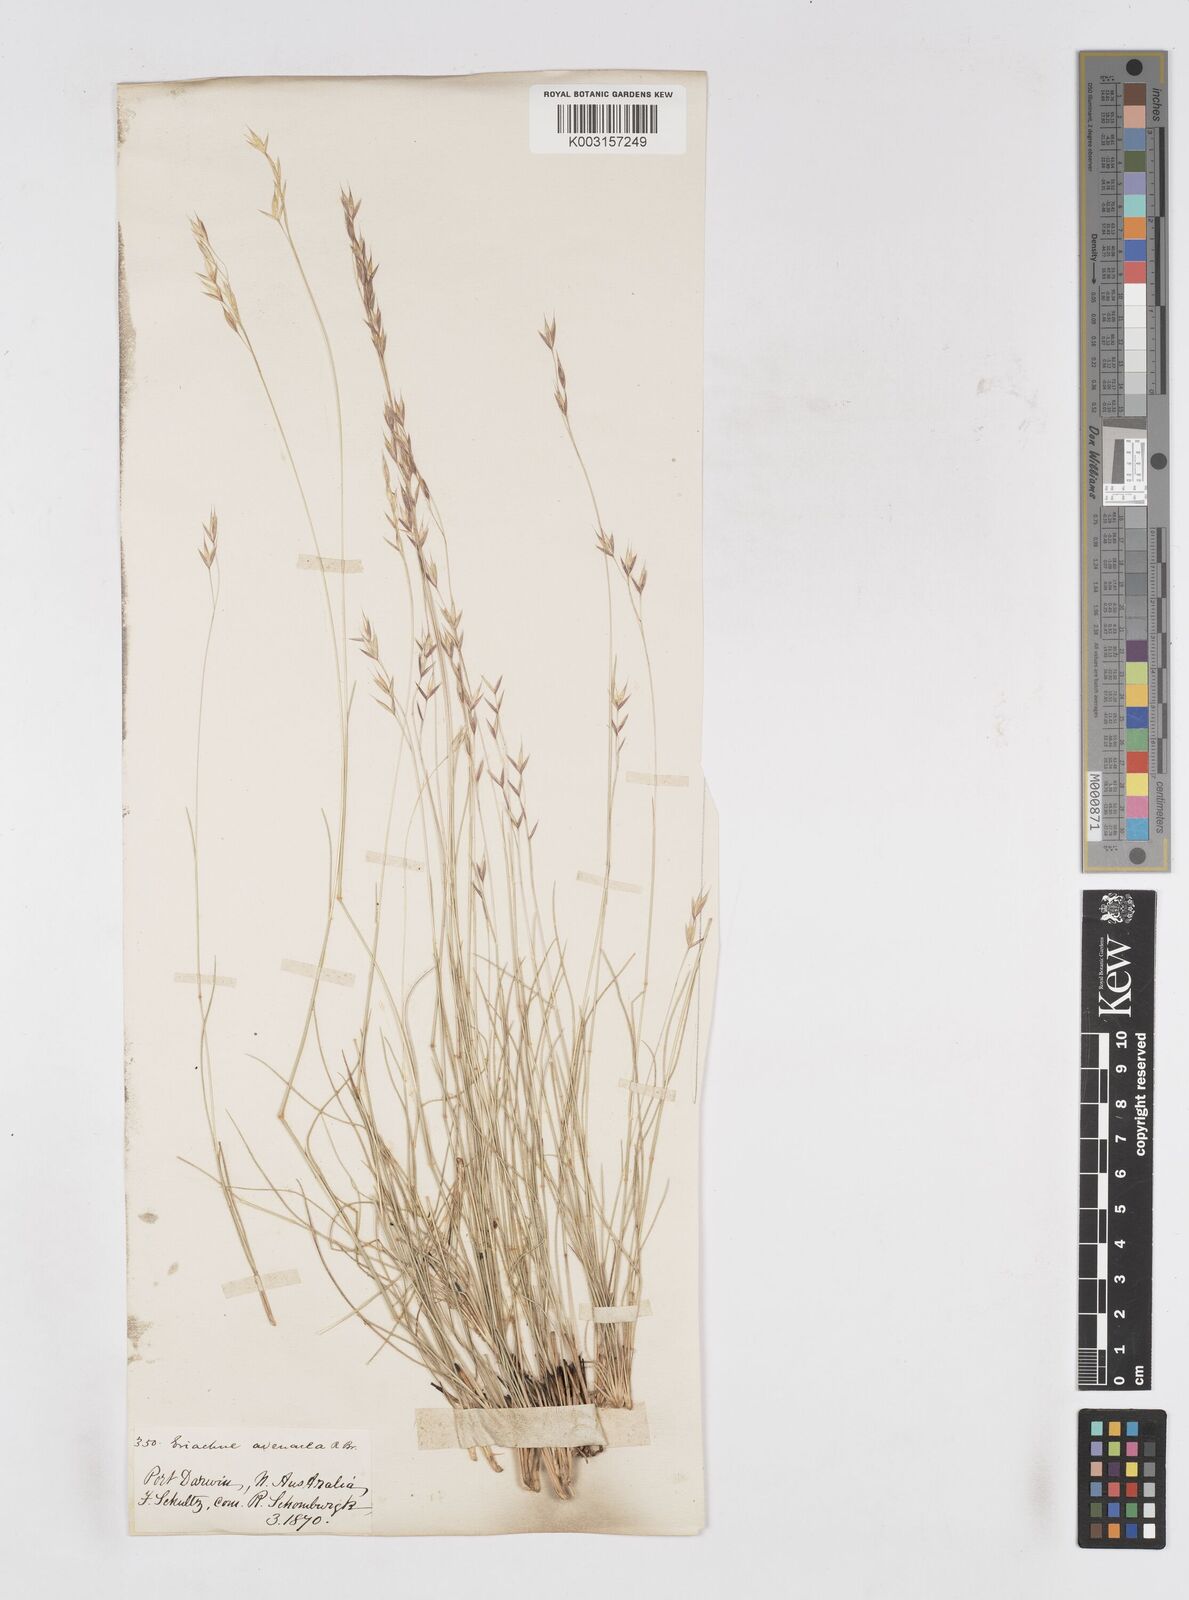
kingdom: Plantae
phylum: Tracheophyta
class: Liliopsida
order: Poales
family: Poaceae
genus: Eriachne
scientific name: Eriachne avenacea
